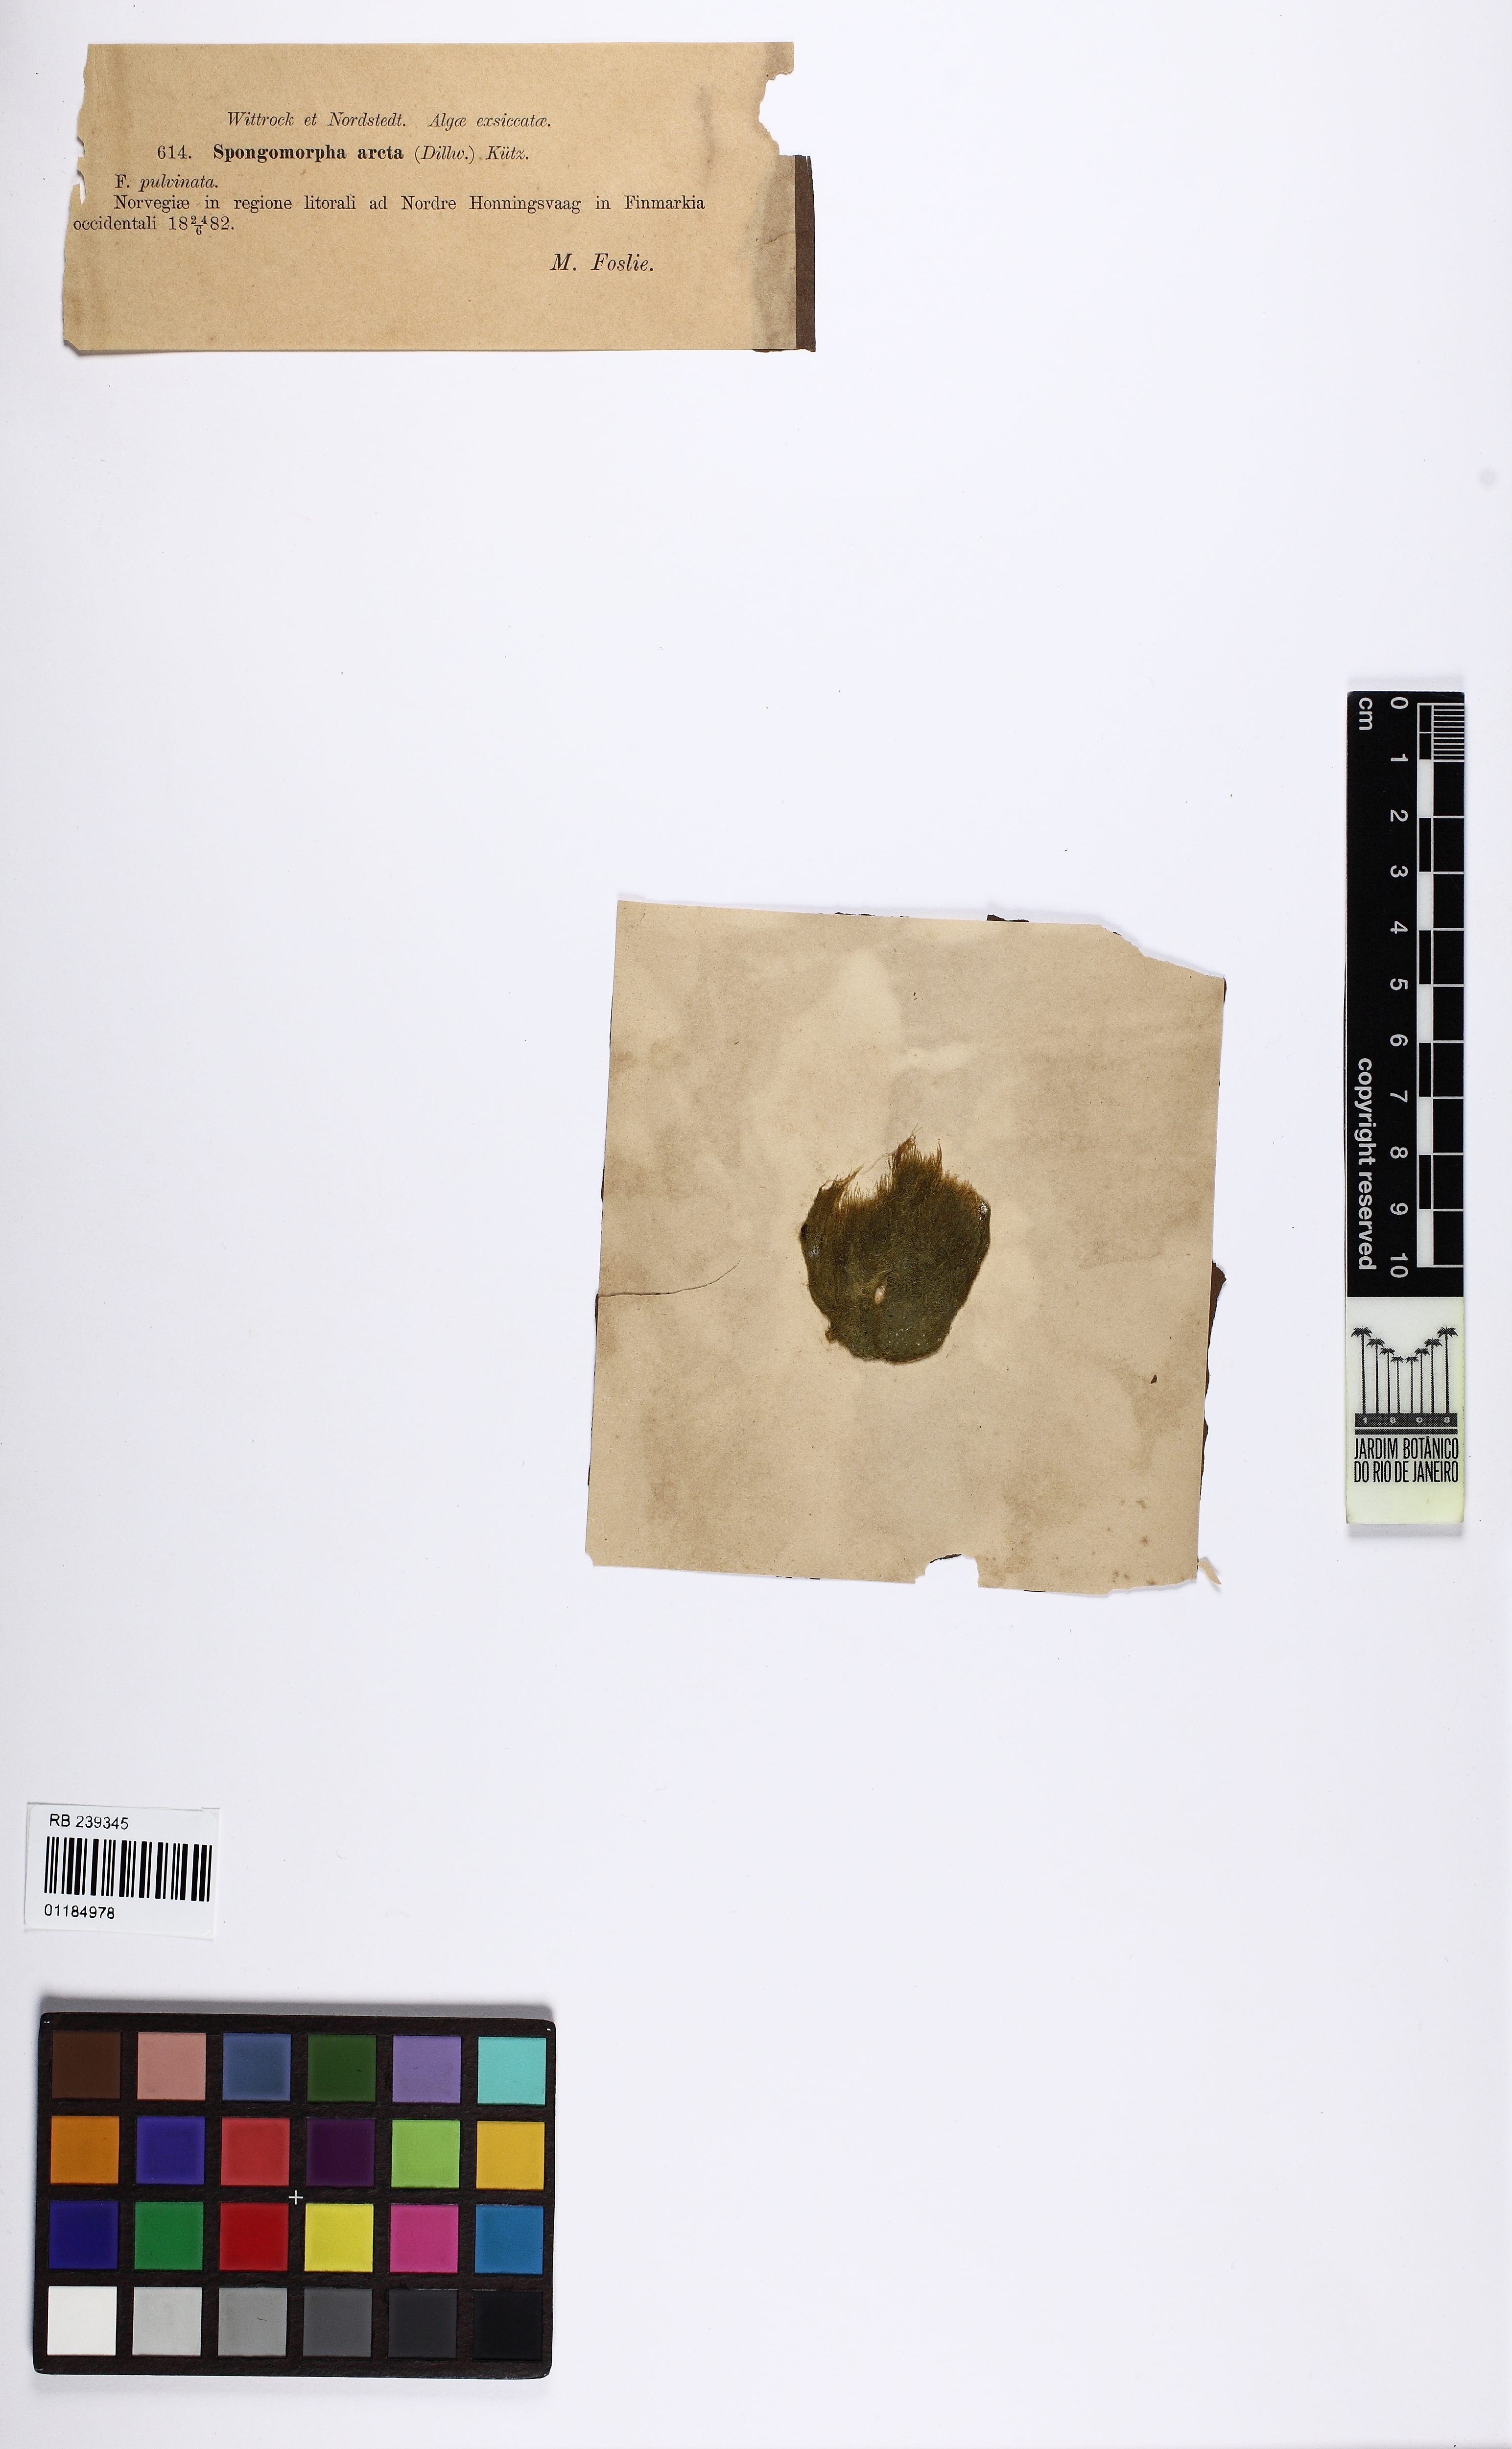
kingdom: Plantae
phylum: Chlorophyta
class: Ulvophyceae
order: Ulotrichales
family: Ulotrichaceae
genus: Acrosiphonia
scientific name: Acrosiphonia arcta
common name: Green tarantula weed
